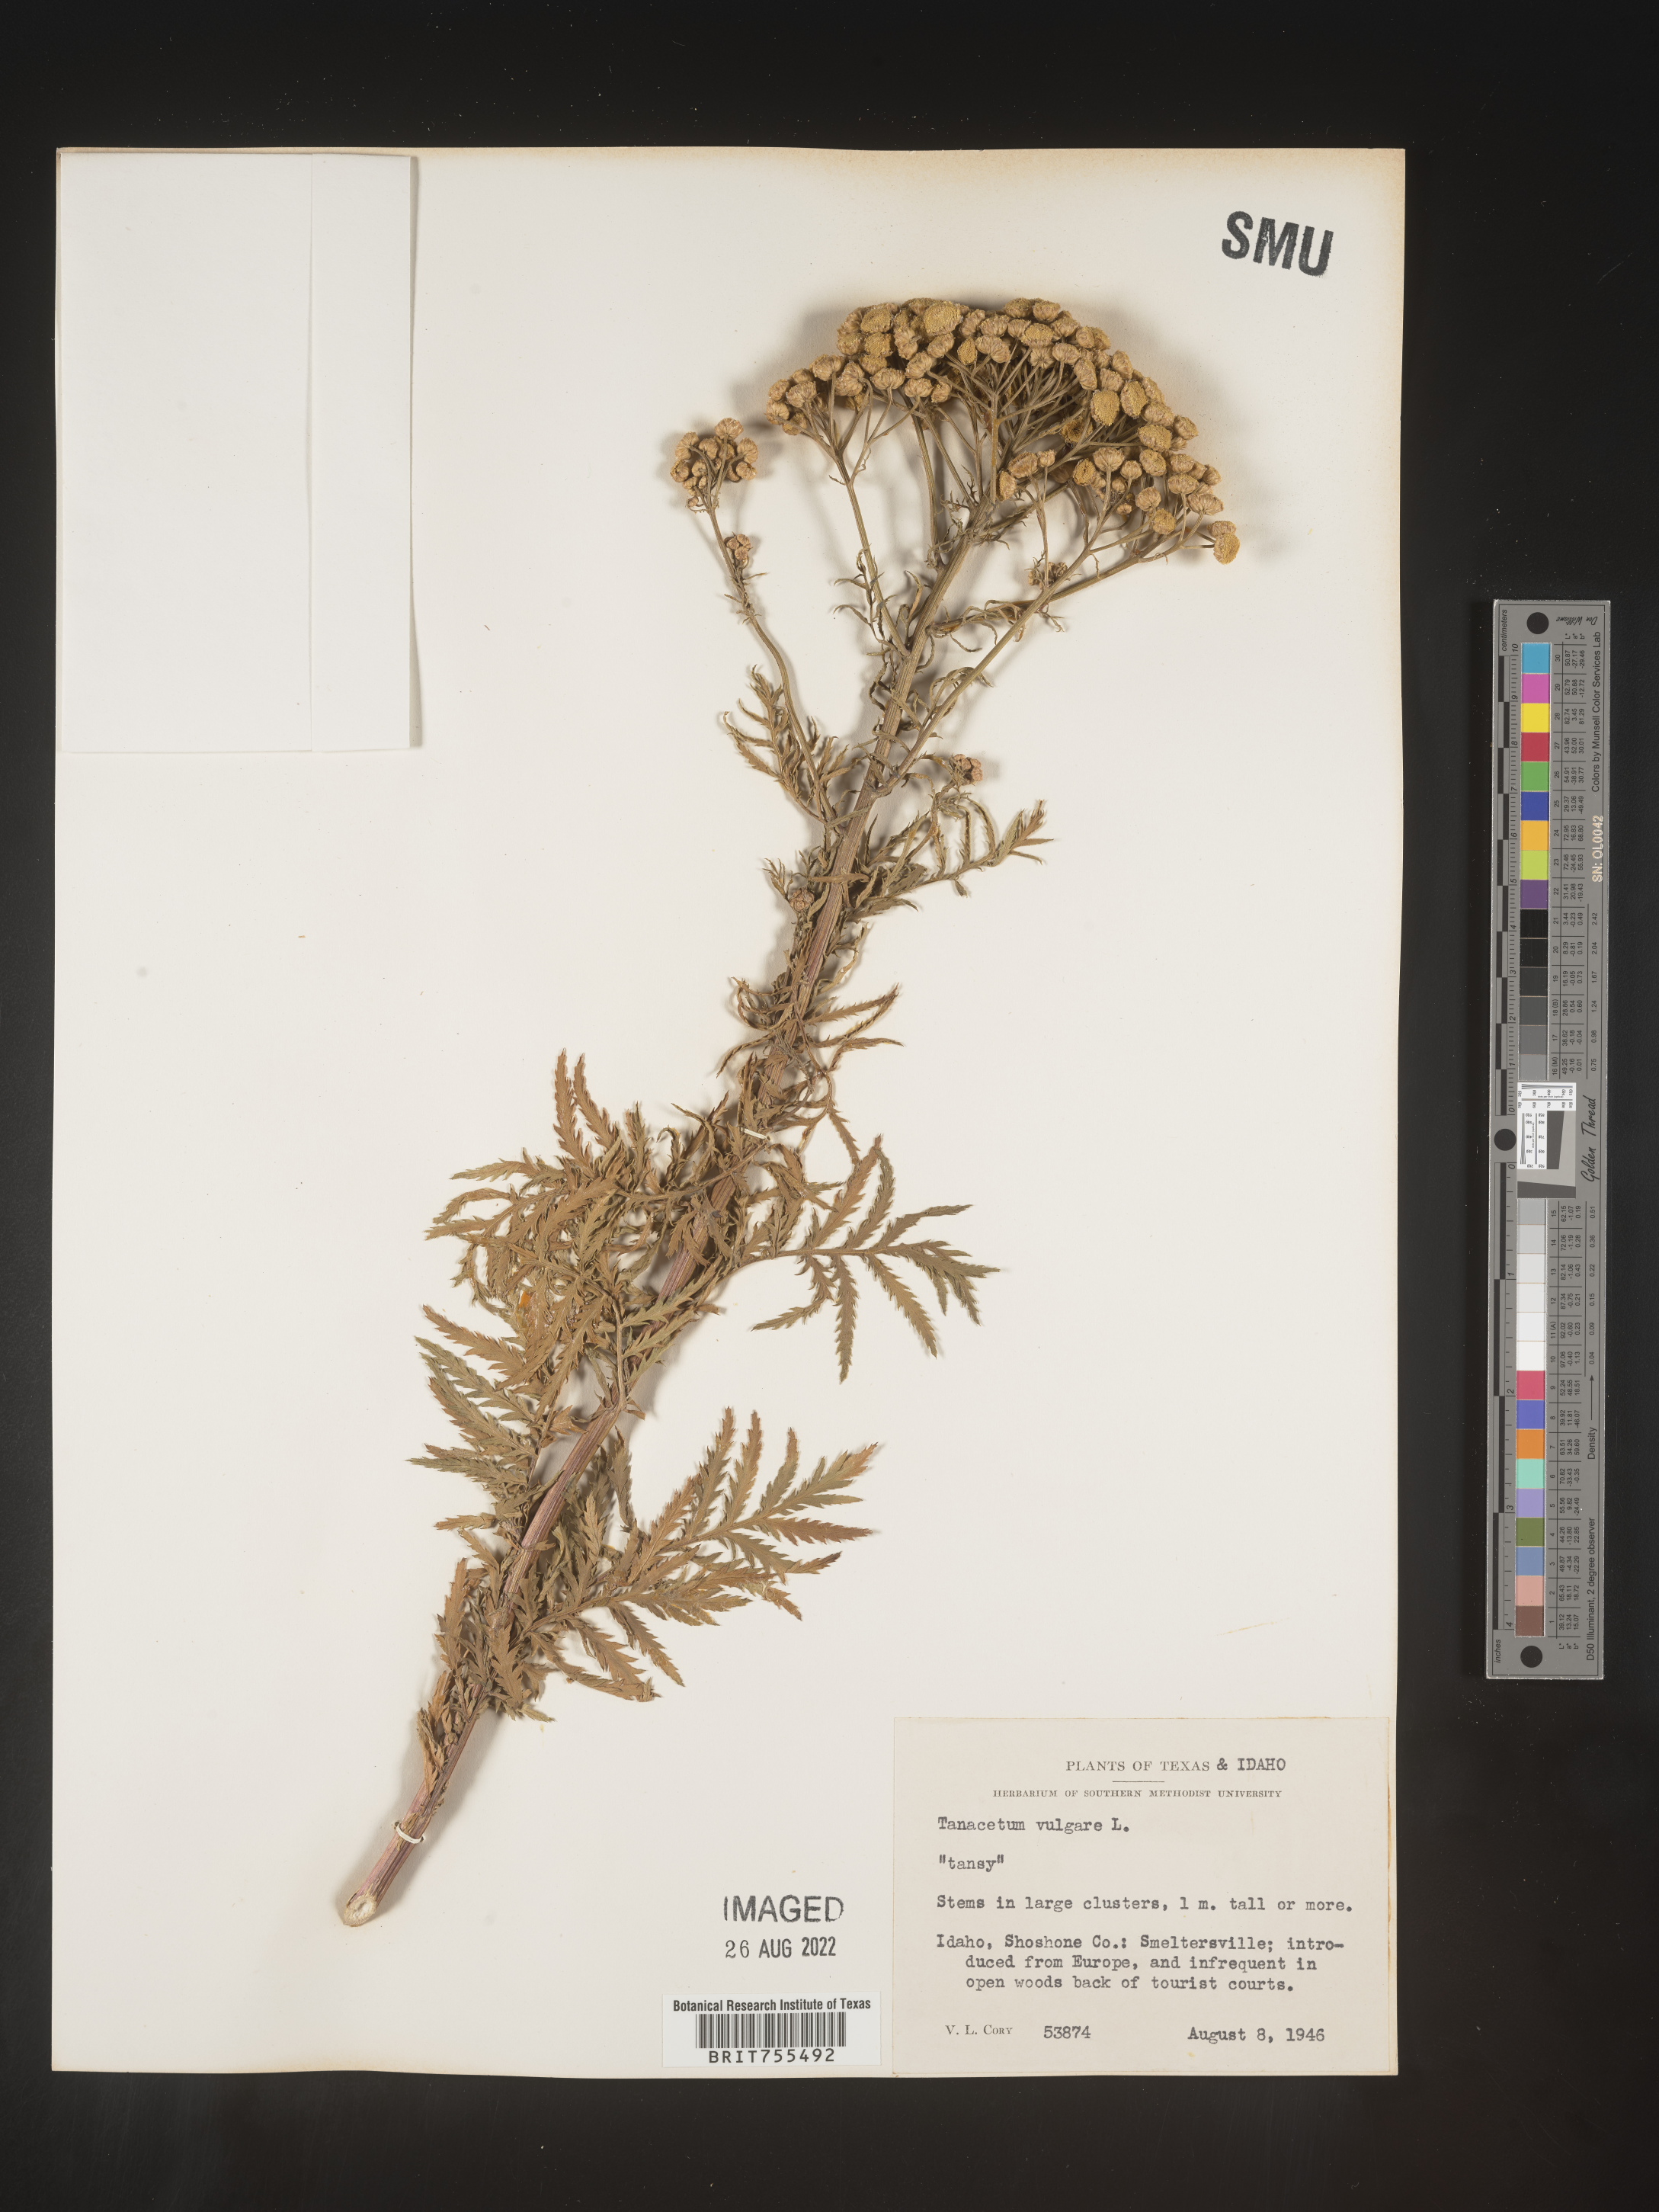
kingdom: Plantae
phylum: Tracheophyta
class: Magnoliopsida
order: Asterales
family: Asteraceae
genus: Tanacetum
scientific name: Tanacetum vulgare
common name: Common tansy
